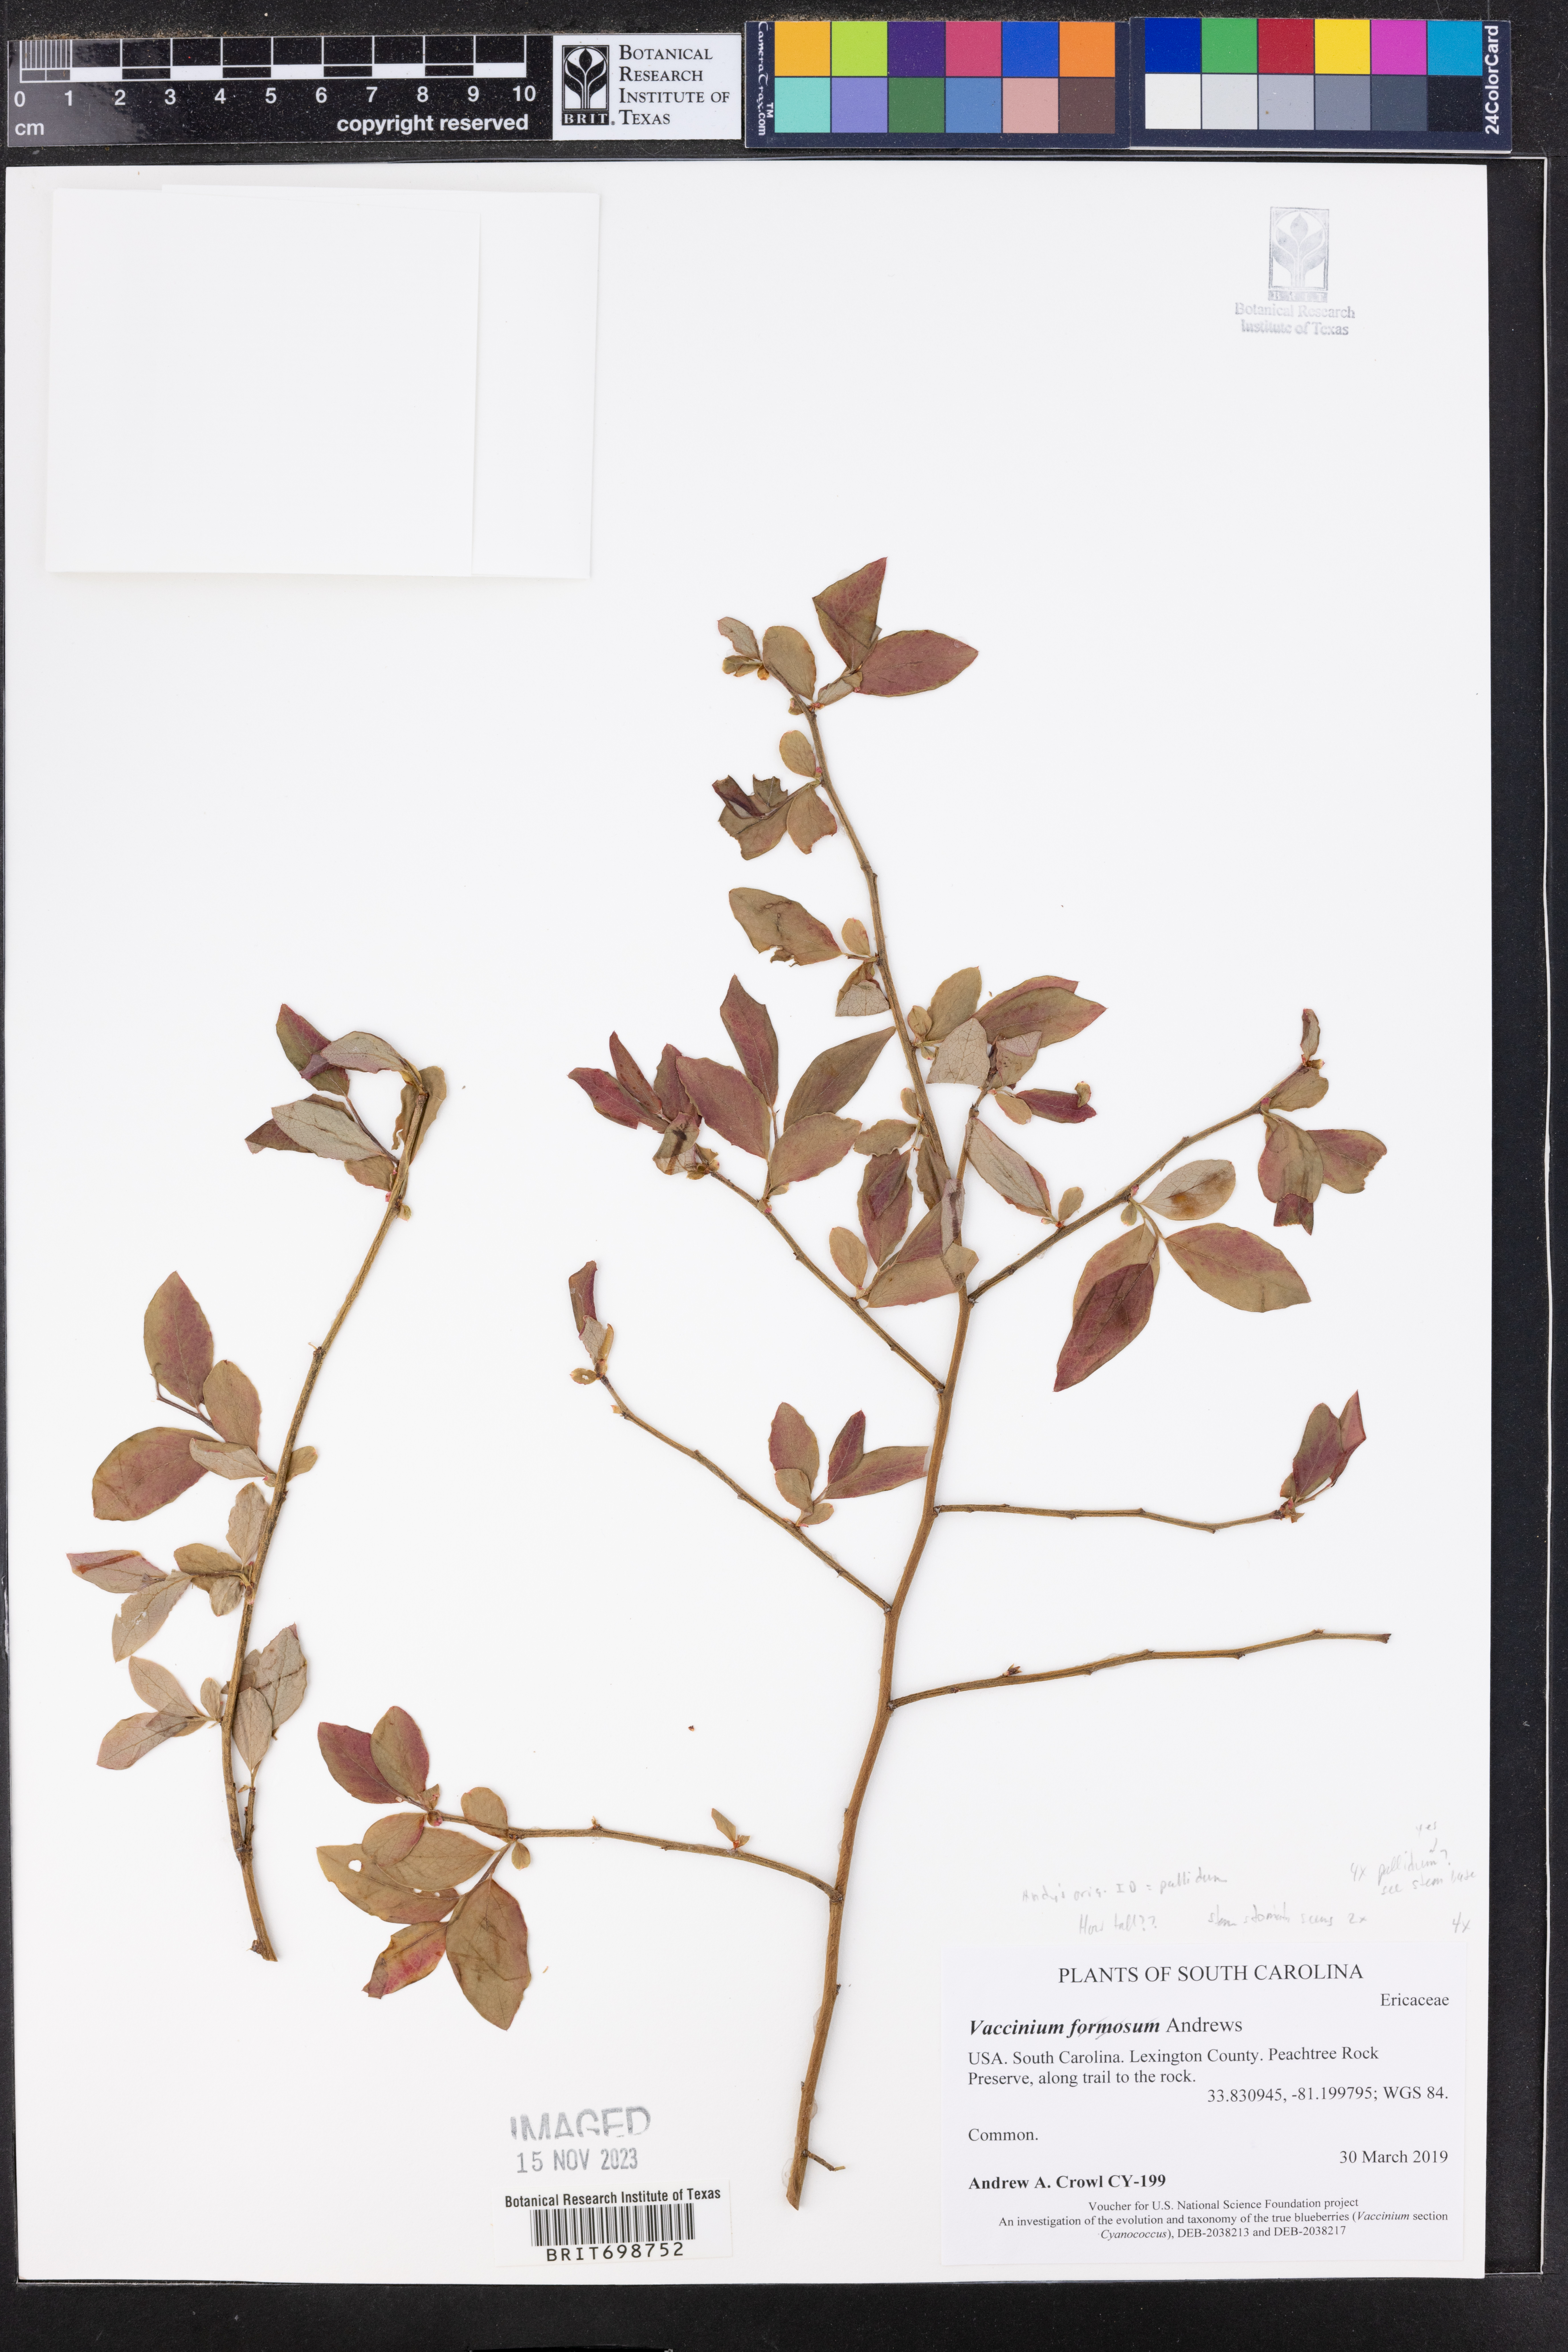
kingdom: Plantae
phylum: Tracheophyta
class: Magnoliopsida
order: Ericales
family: Ericaceae
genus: Vaccinium
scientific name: Vaccinium corymbosum
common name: Blueberry
